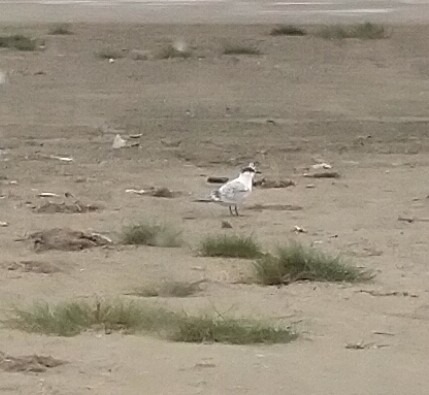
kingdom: Animalia
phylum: Chordata
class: Aves
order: Charadriiformes
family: Laridae
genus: Thalasseus
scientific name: Thalasseus sandvicensis
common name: Splitterne
